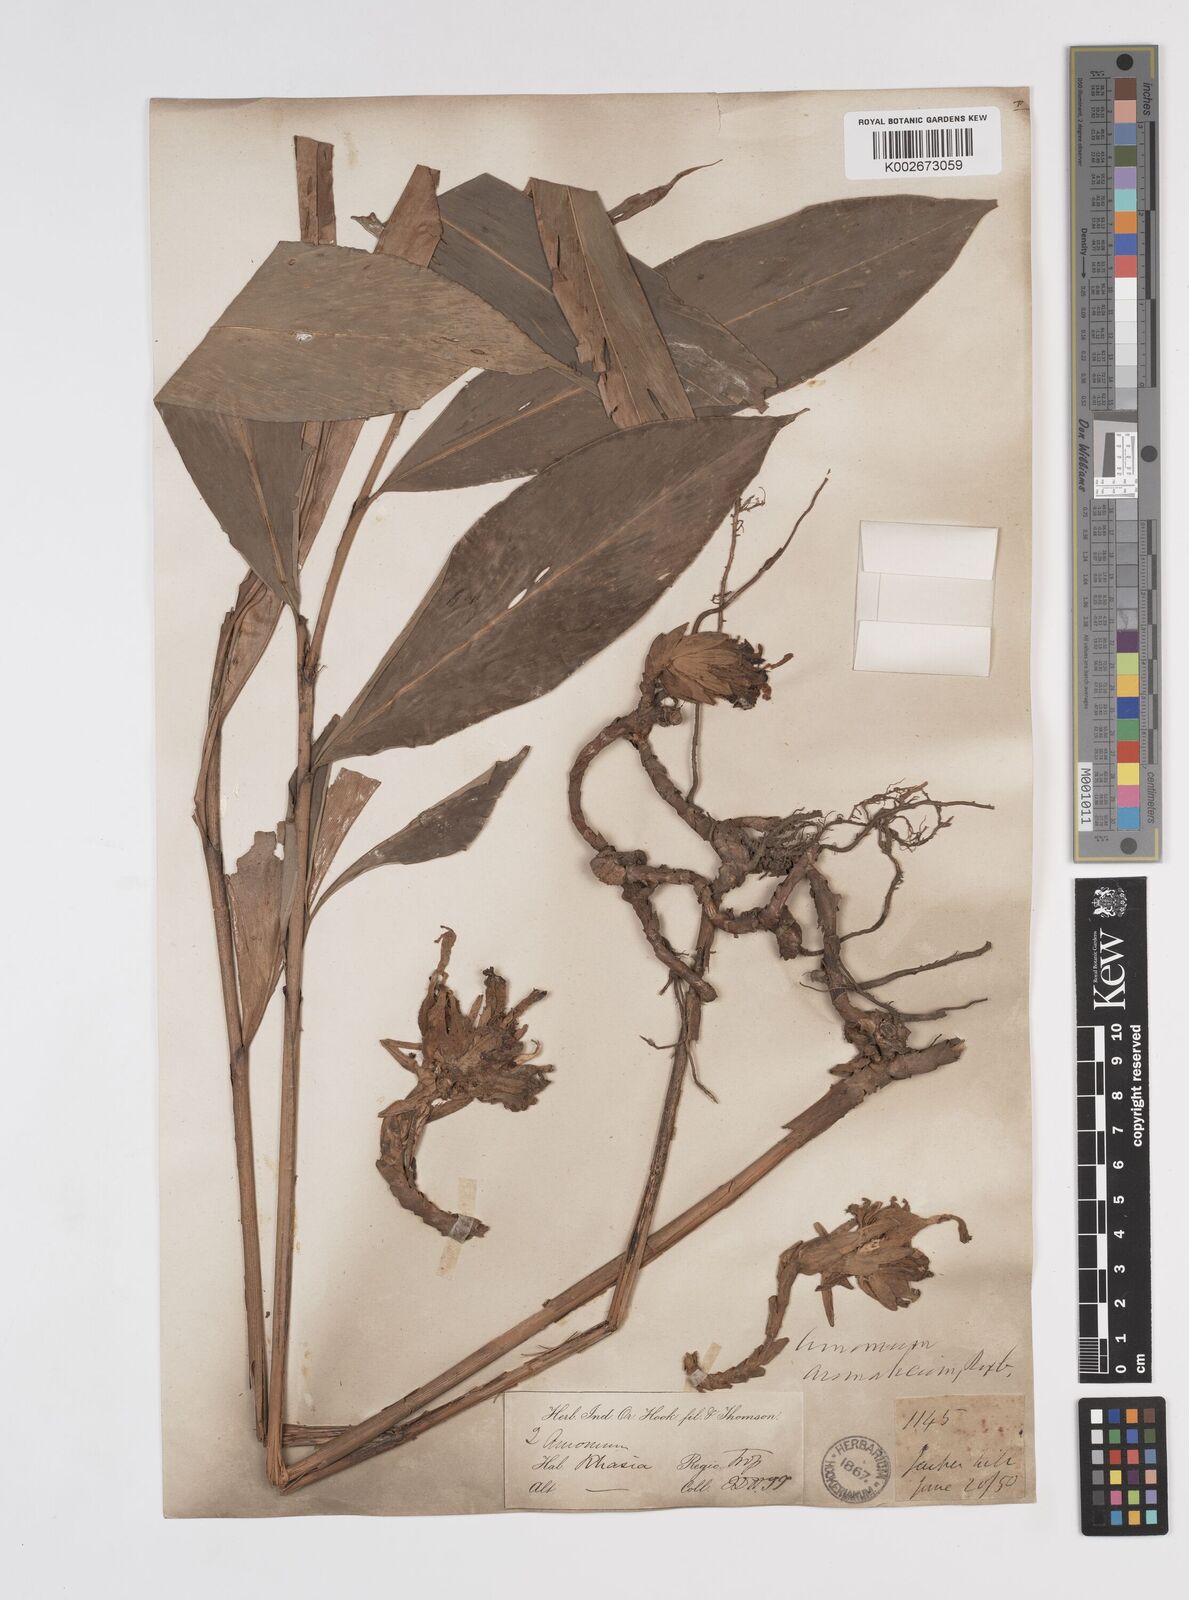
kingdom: Plantae
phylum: Tracheophyta
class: Liliopsida
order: Zingiberales
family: Zingiberaceae
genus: Wurfbainia
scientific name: Wurfbainia aromatica
